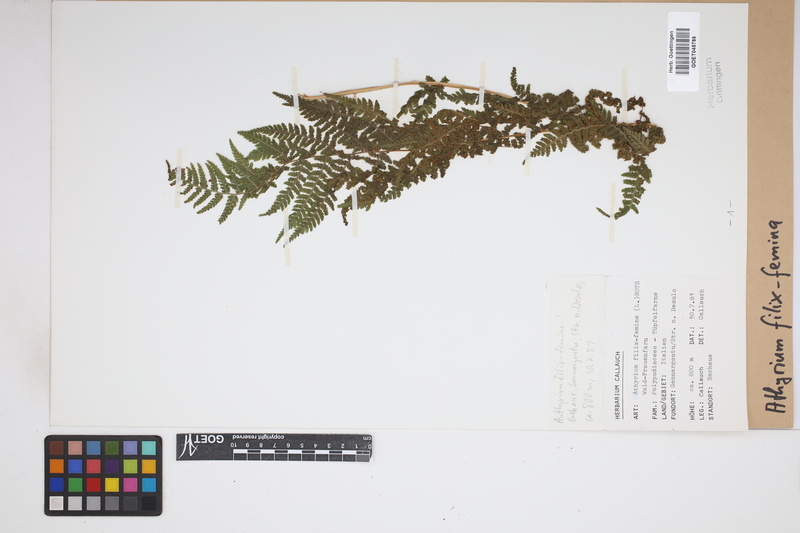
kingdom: Plantae
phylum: Tracheophyta
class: Polypodiopsida
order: Polypodiales
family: Athyriaceae
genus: Athyrium
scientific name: Athyrium filix-femina
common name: Lady fern
